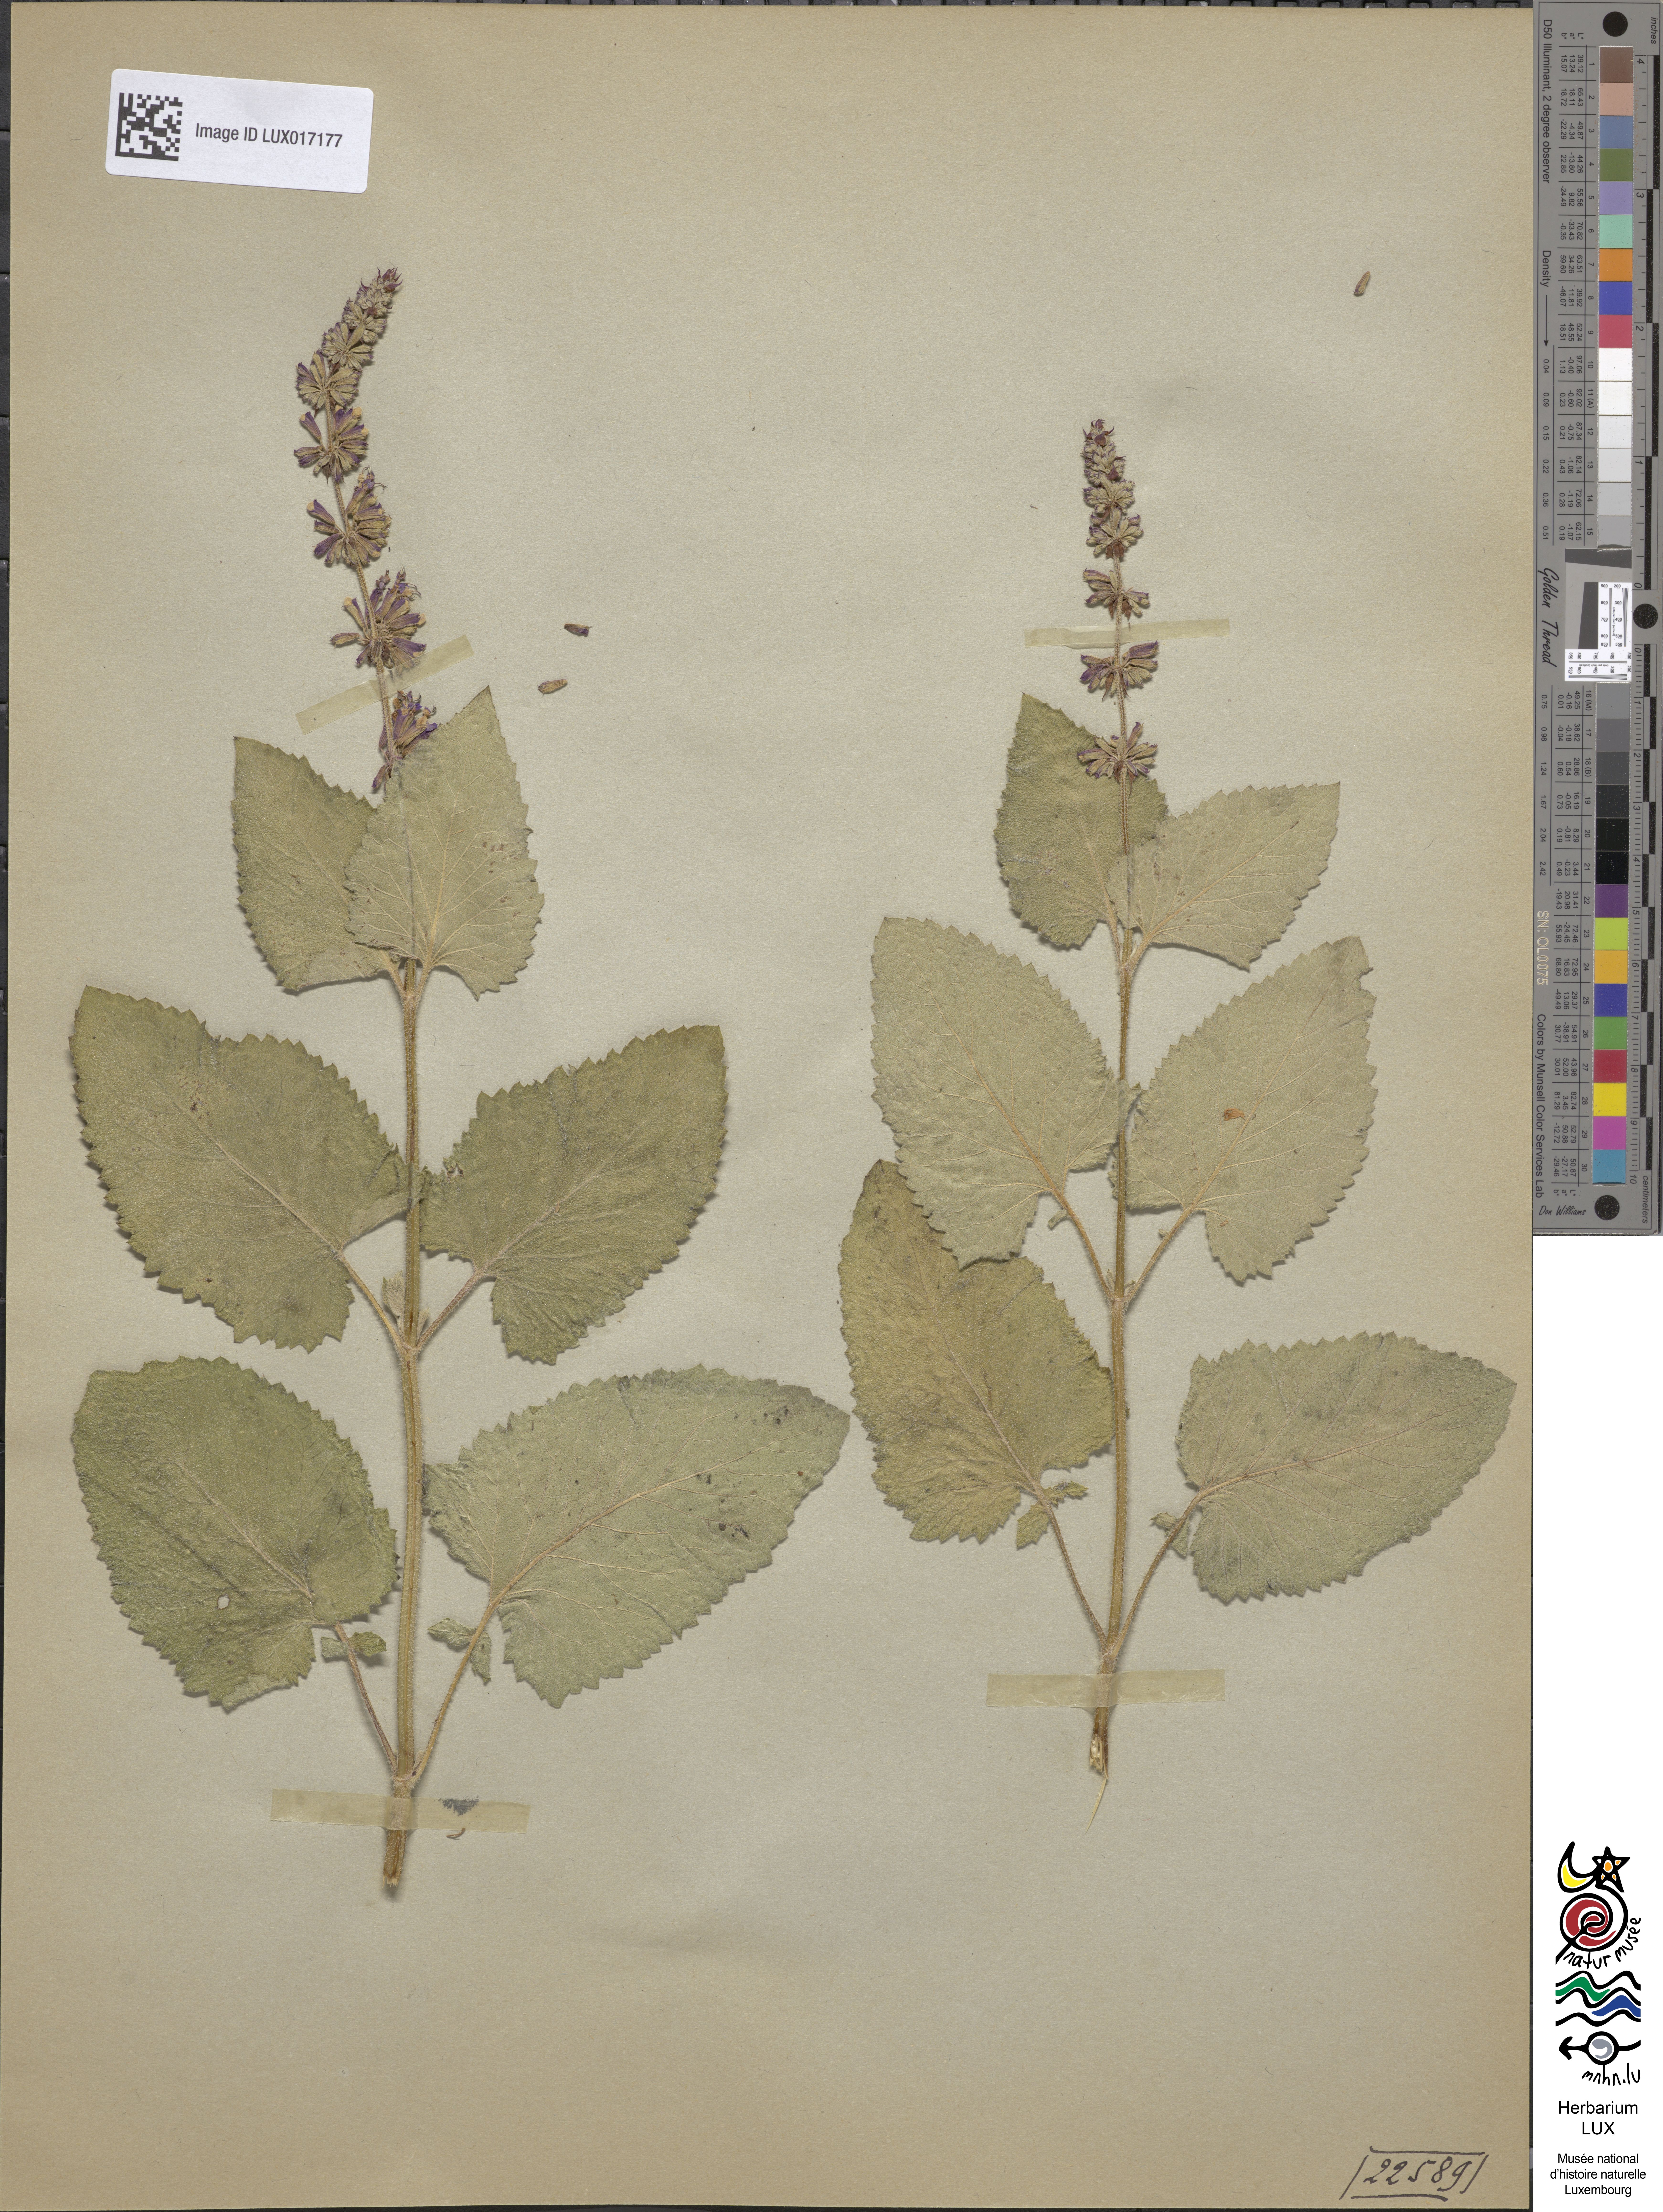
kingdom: Plantae
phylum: Tracheophyta
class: Magnoliopsida
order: Lamiales
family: Lamiaceae
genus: Salvia
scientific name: Salvia verticillata
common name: Whorled clary
